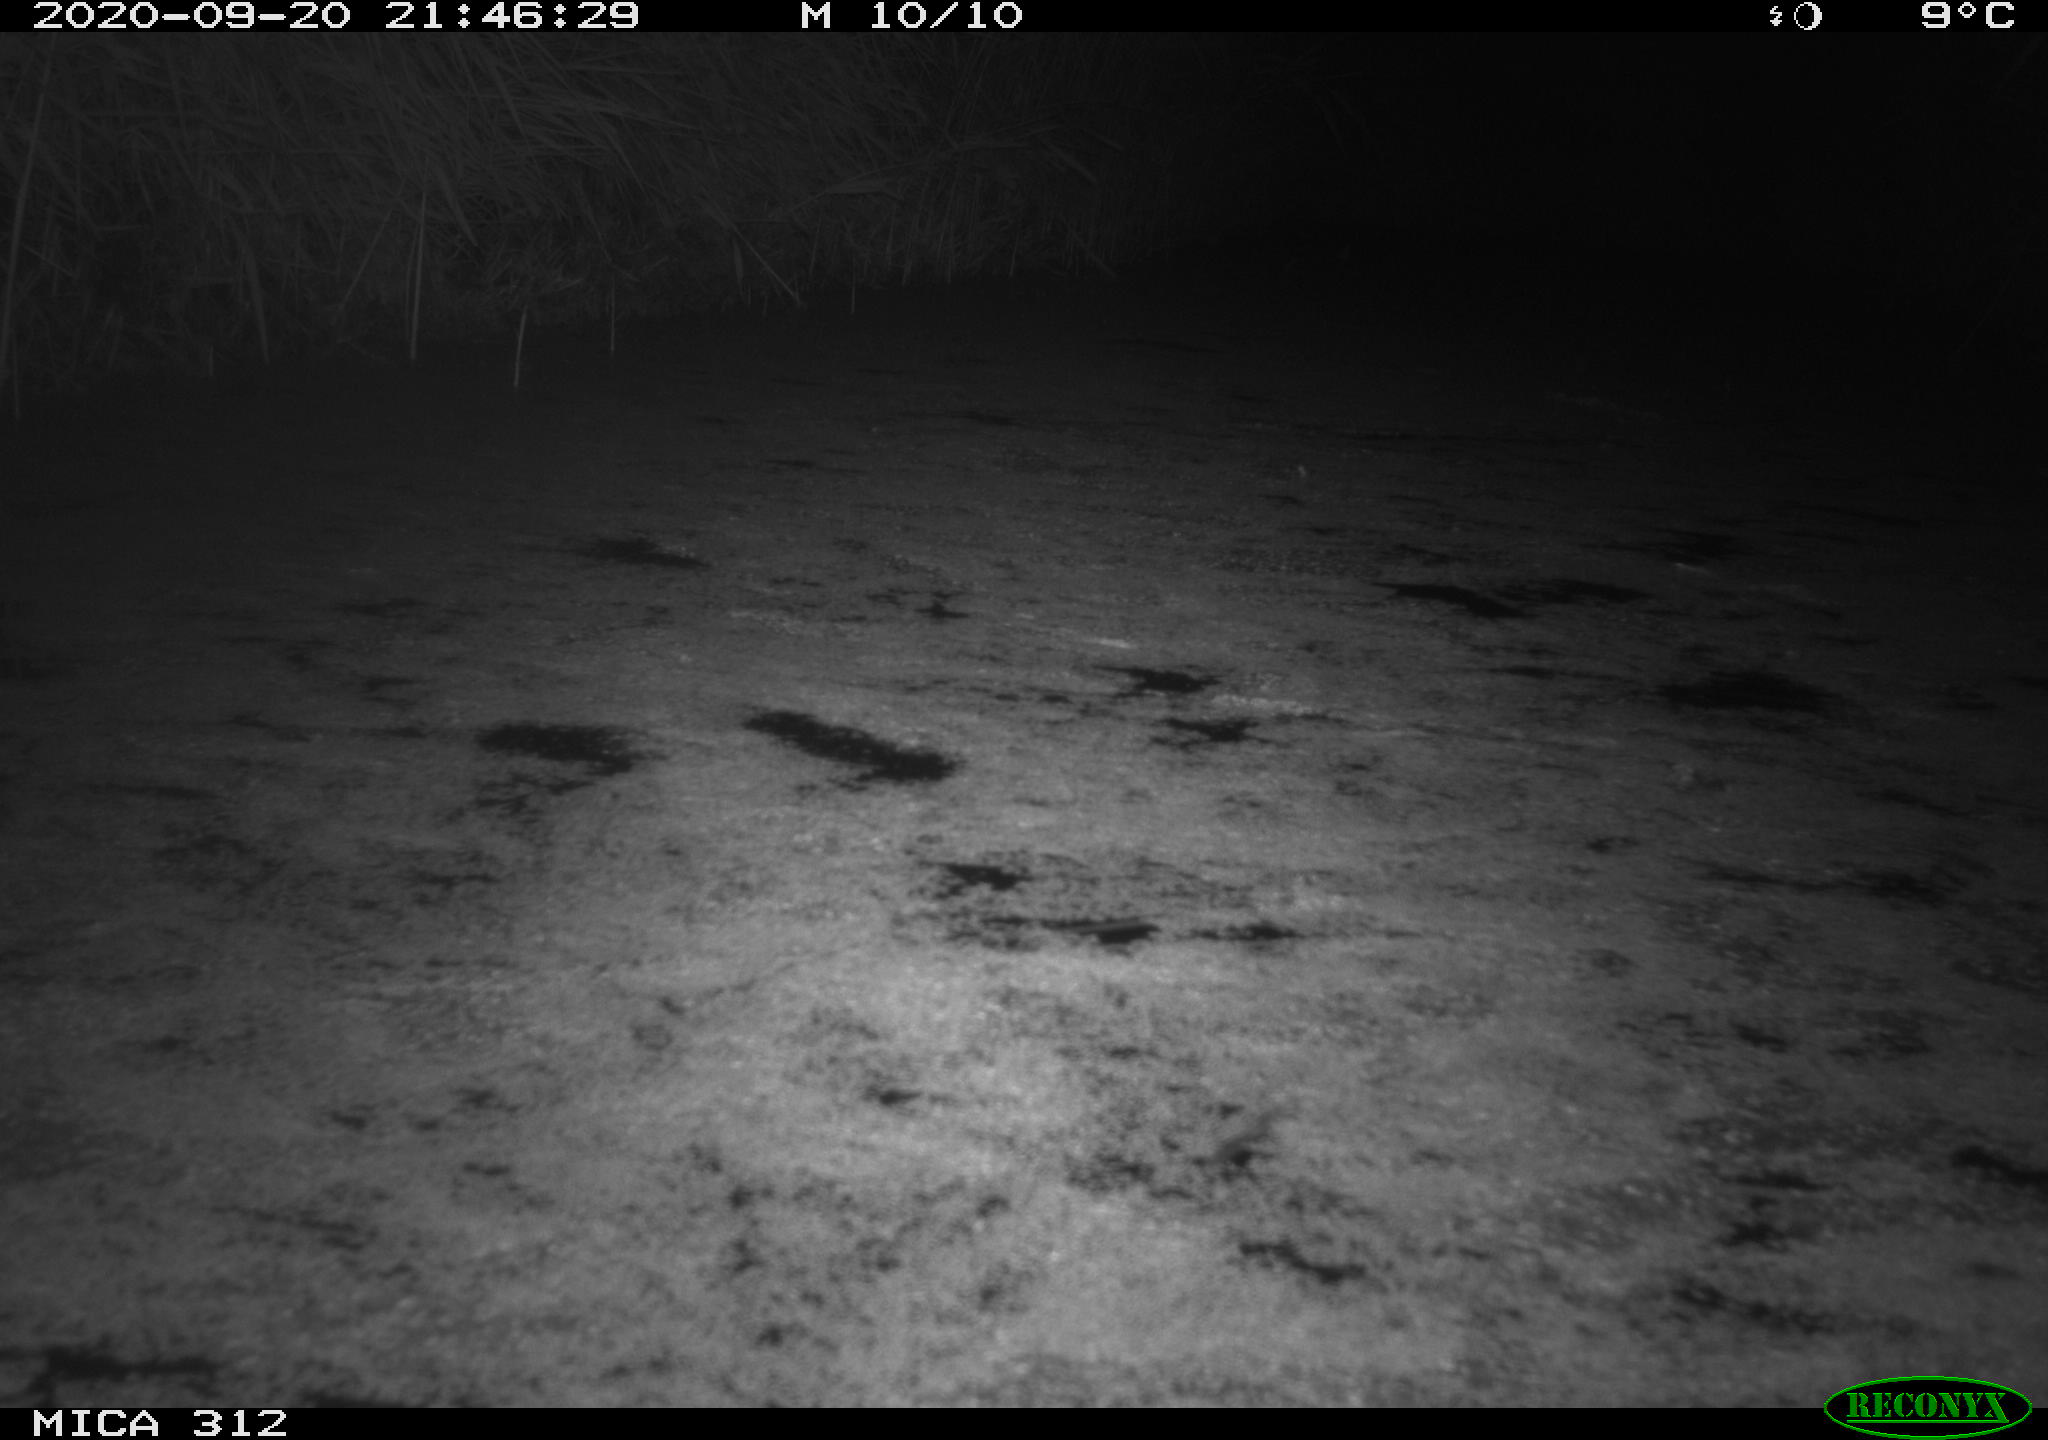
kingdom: Animalia
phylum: Chordata
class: Mammalia
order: Rodentia
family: Muridae
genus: Rattus
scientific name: Rattus norvegicus
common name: Brown rat
